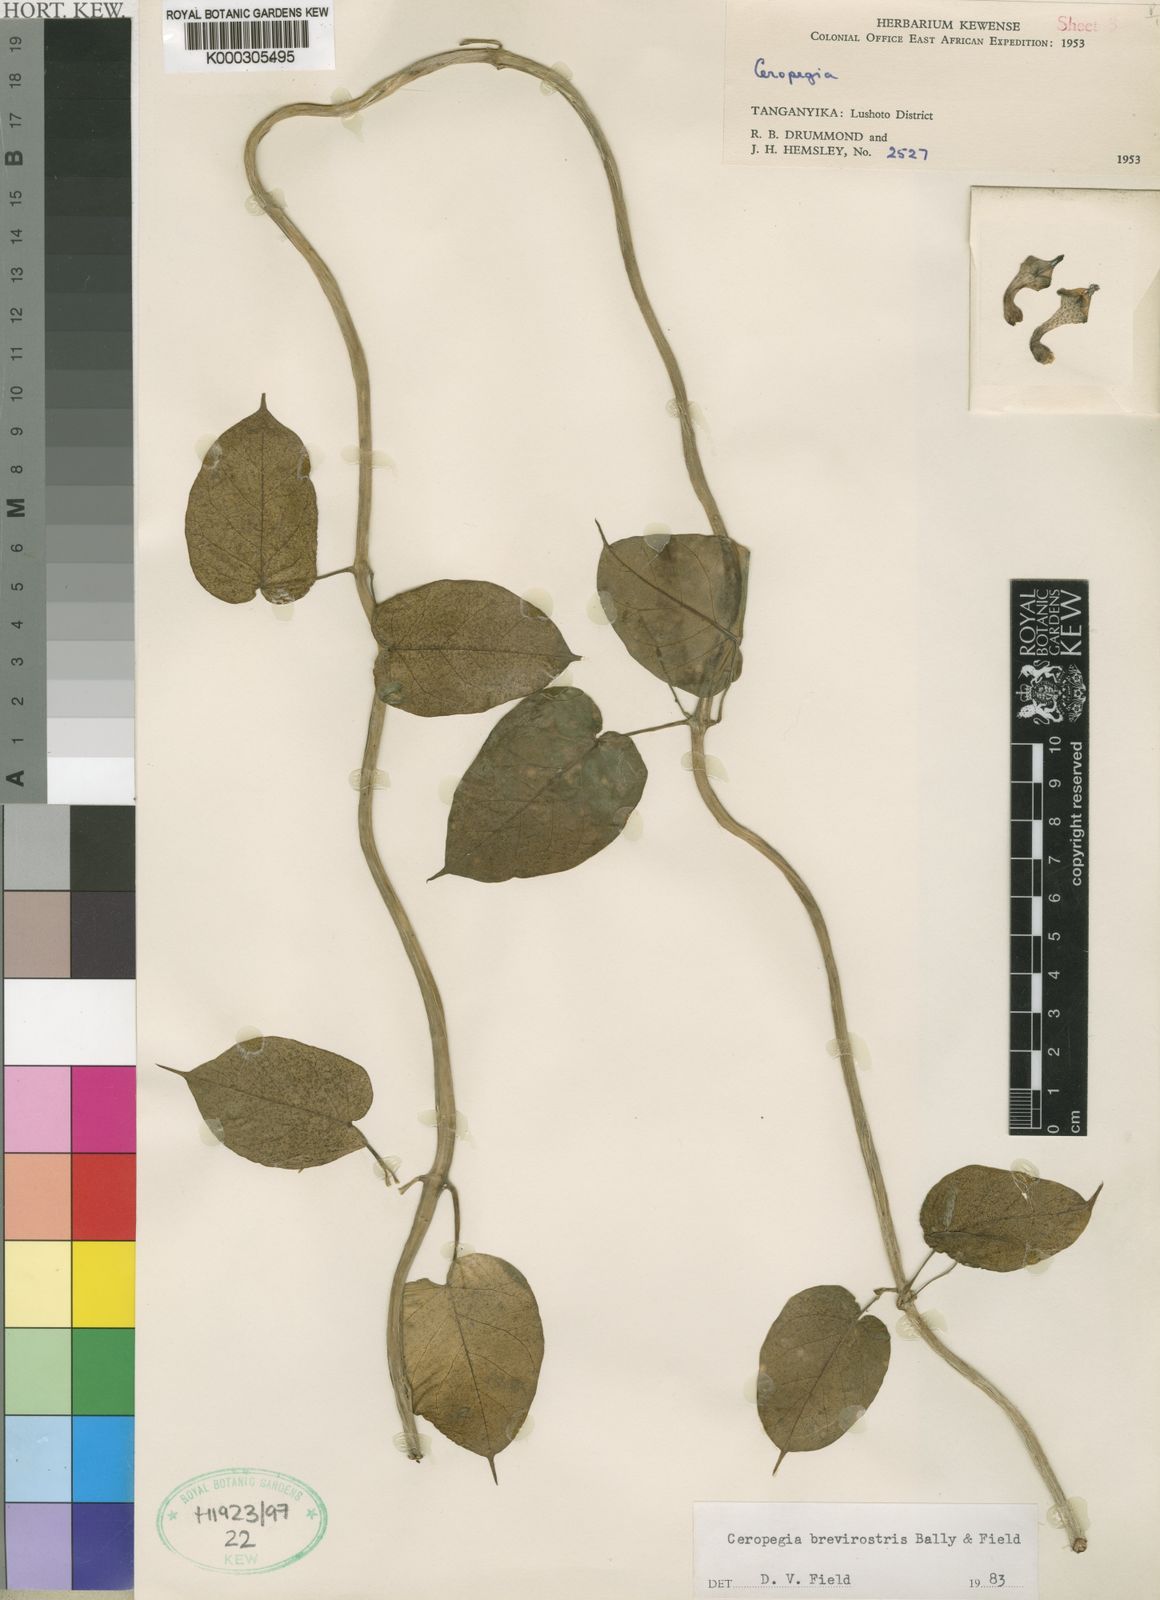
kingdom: Plantae
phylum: Tracheophyta
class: Magnoliopsida
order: Gentianales
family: Apocynaceae
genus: Ceropegia
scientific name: Ceropegia distincta
